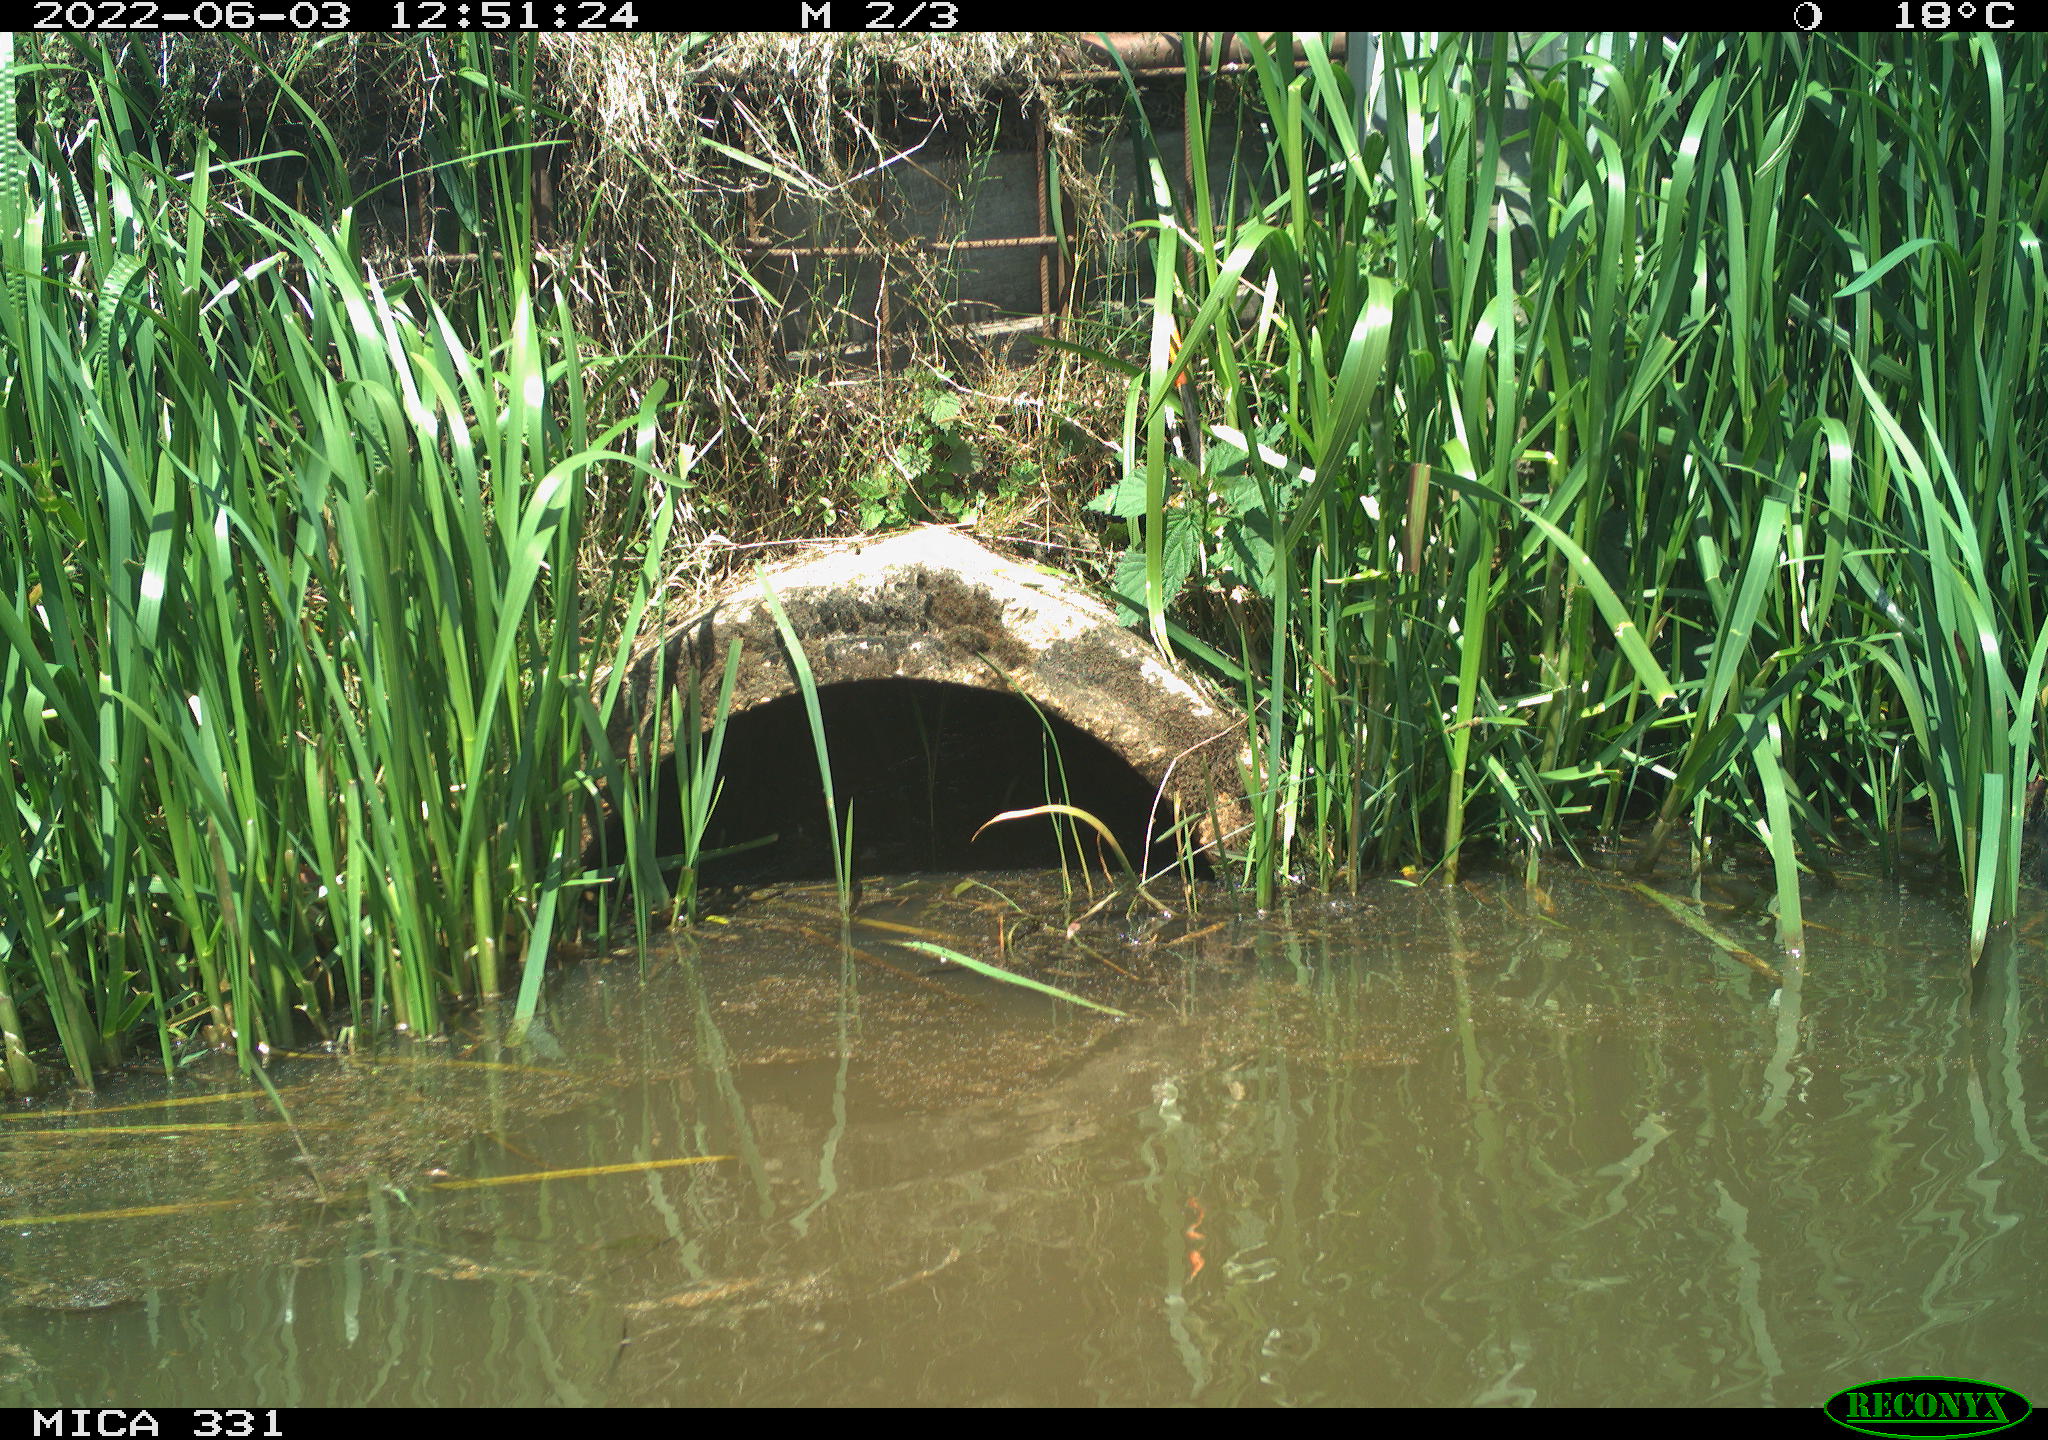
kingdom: Animalia
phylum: Chordata
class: Aves
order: Gruiformes
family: Rallidae
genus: Fulica
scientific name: Fulica atra
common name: Eurasian coot
